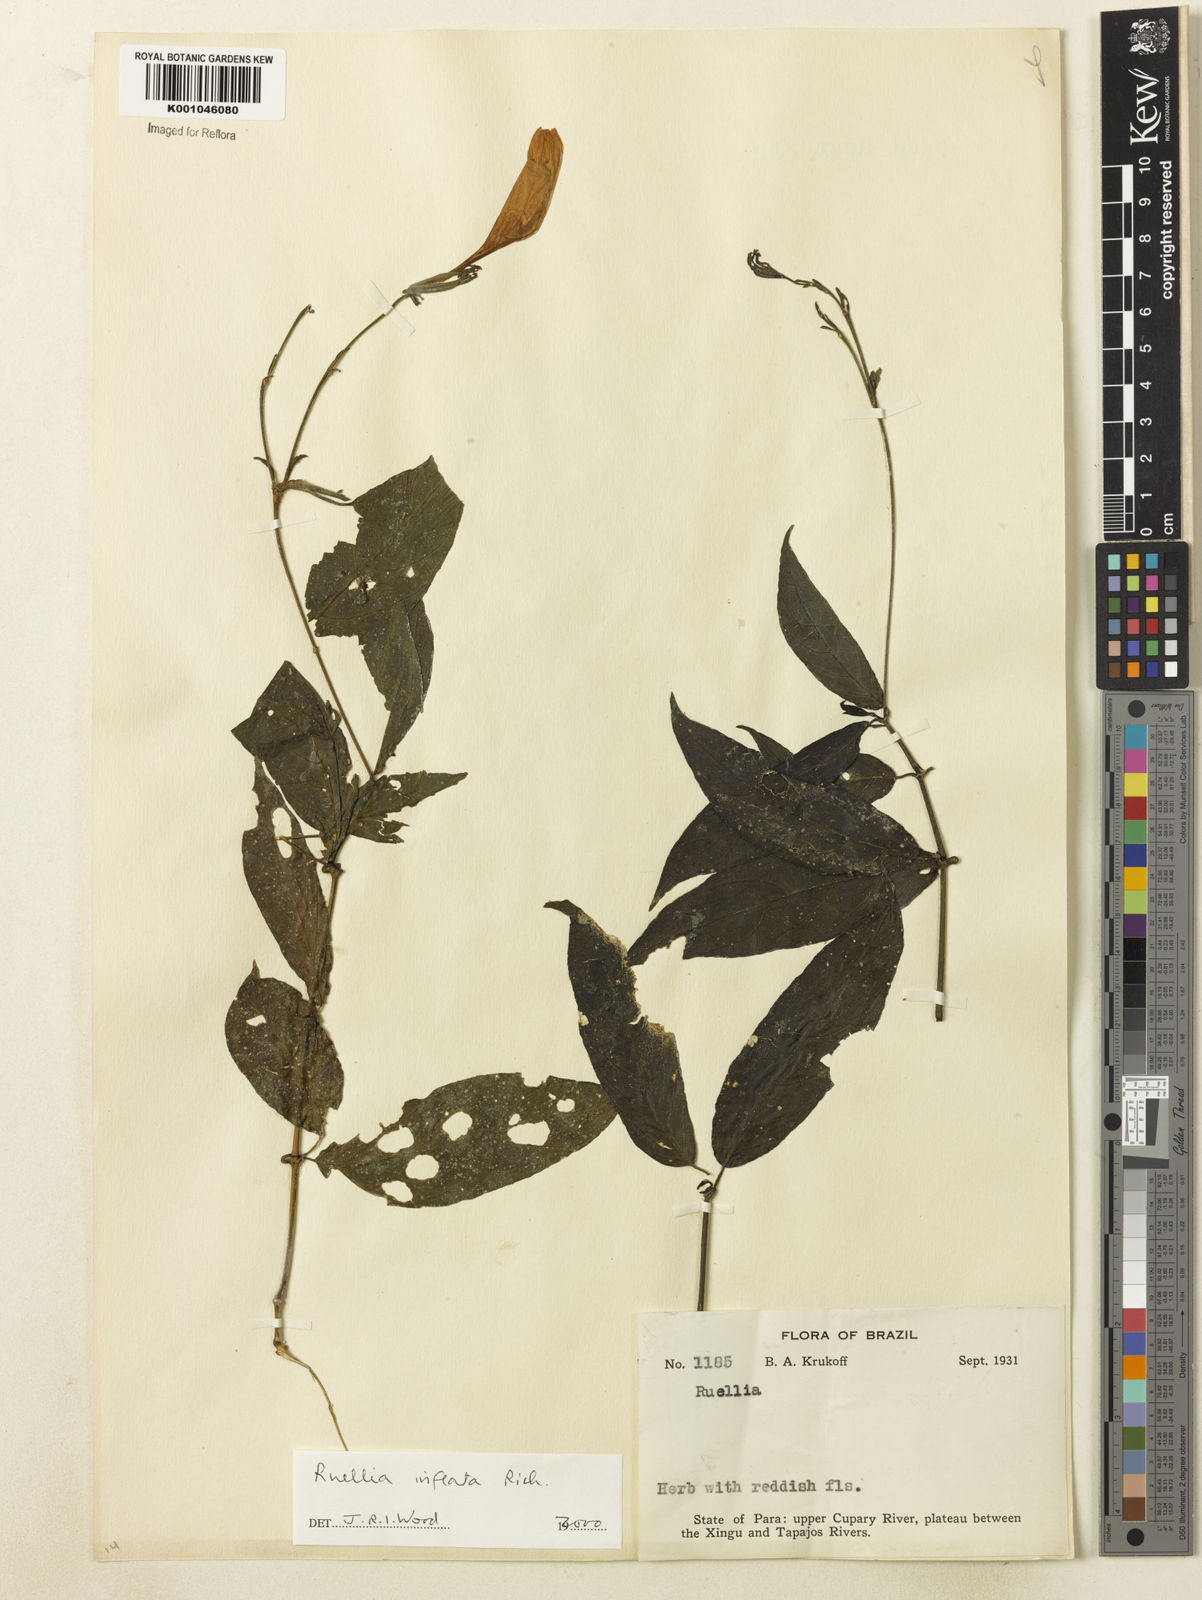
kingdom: Plantae
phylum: Tracheophyta
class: Magnoliopsida
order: Lamiales
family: Acanthaceae
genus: Ruellia
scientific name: Ruellia inflata
